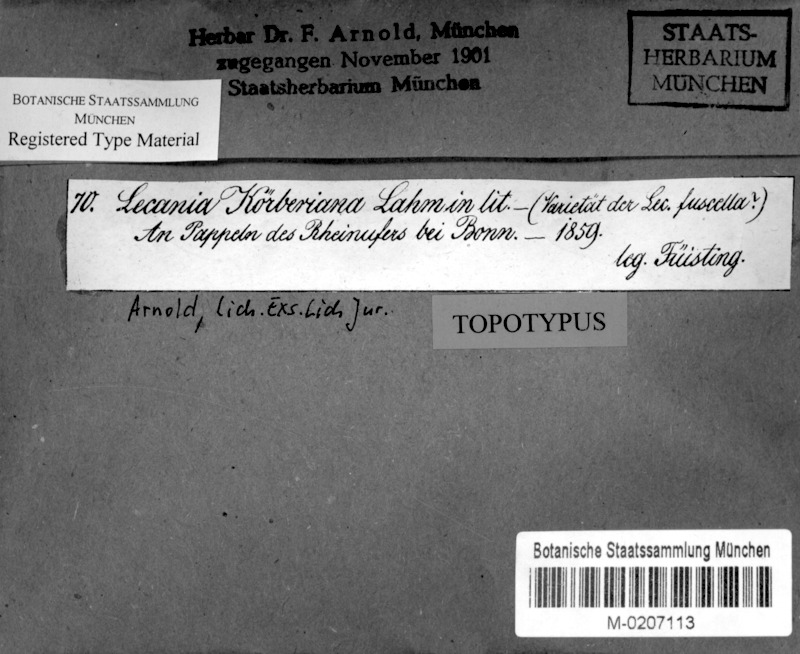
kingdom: Fungi
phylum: Ascomycota
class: Lecanoromycetes
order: Lecanorales
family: Ramalinaceae
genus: Lecania
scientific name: Lecania koerberiana
